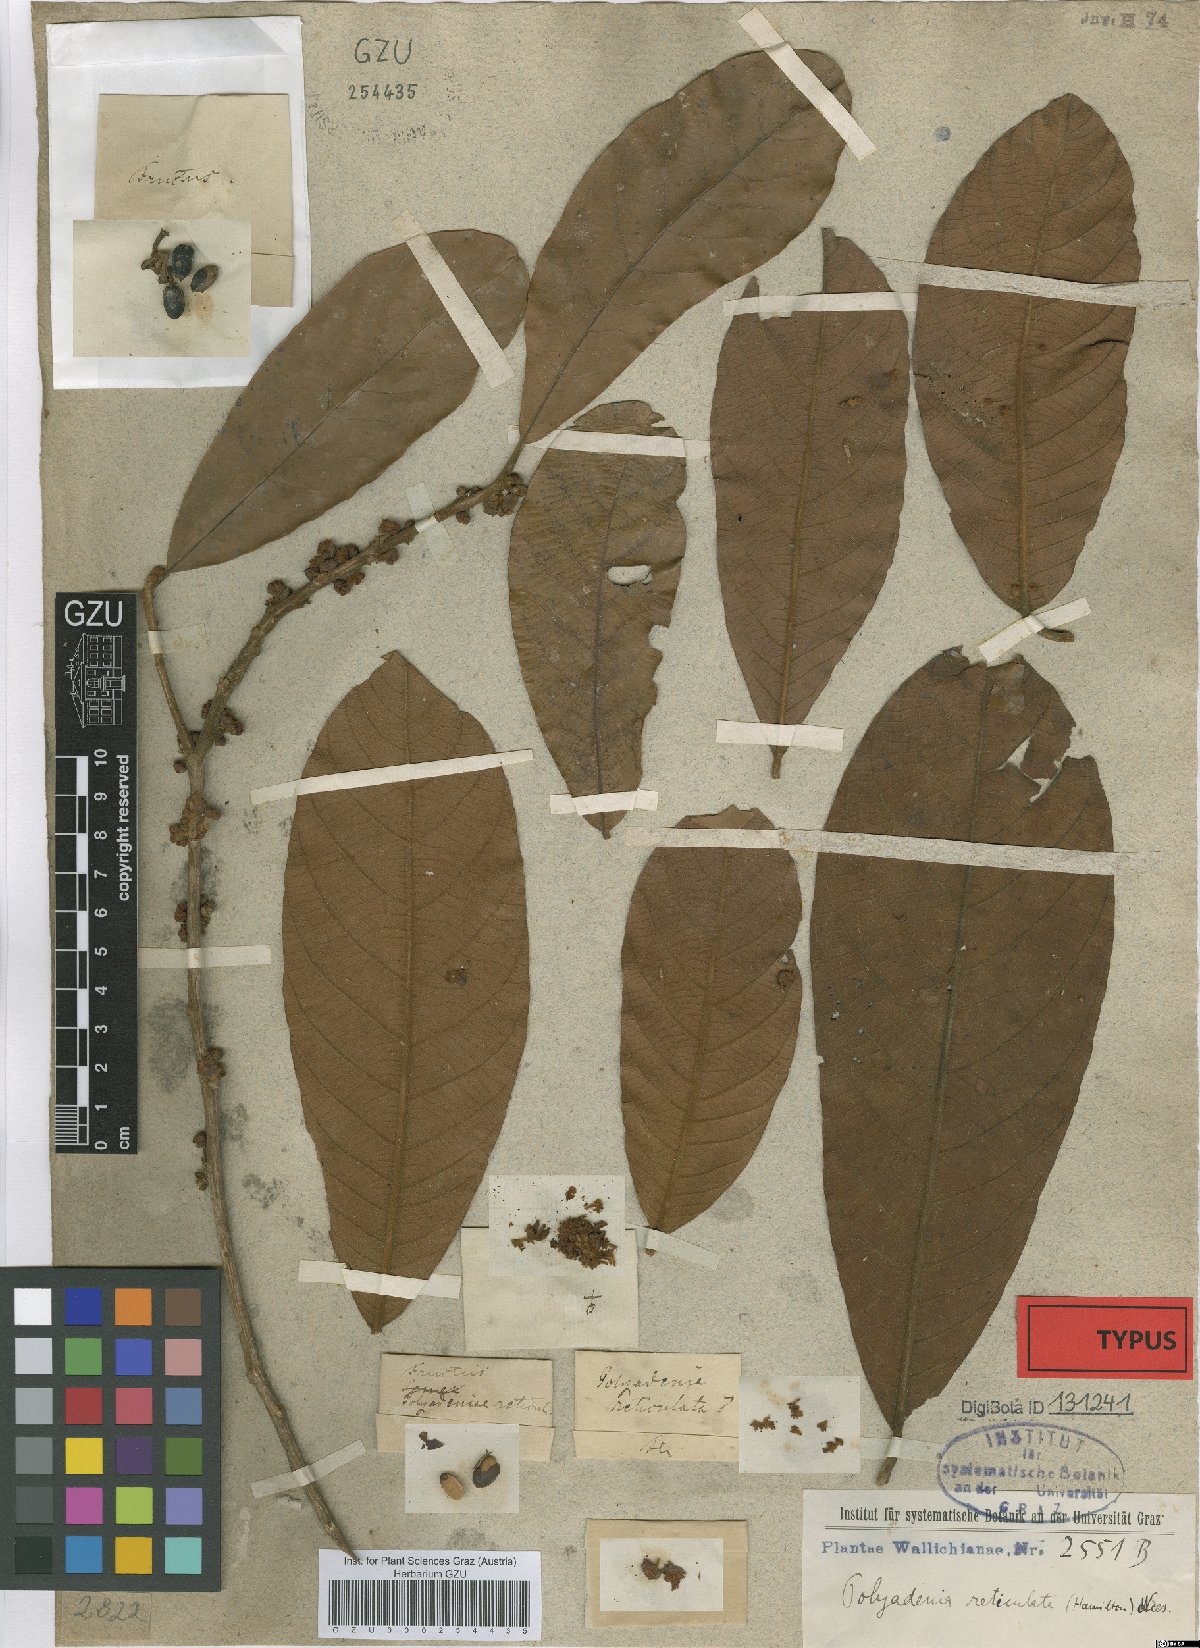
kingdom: Plantae
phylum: Tracheophyta
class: Magnoliopsida
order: Laurales
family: Lauraceae
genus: Lindera
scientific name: Lindera reticulata
